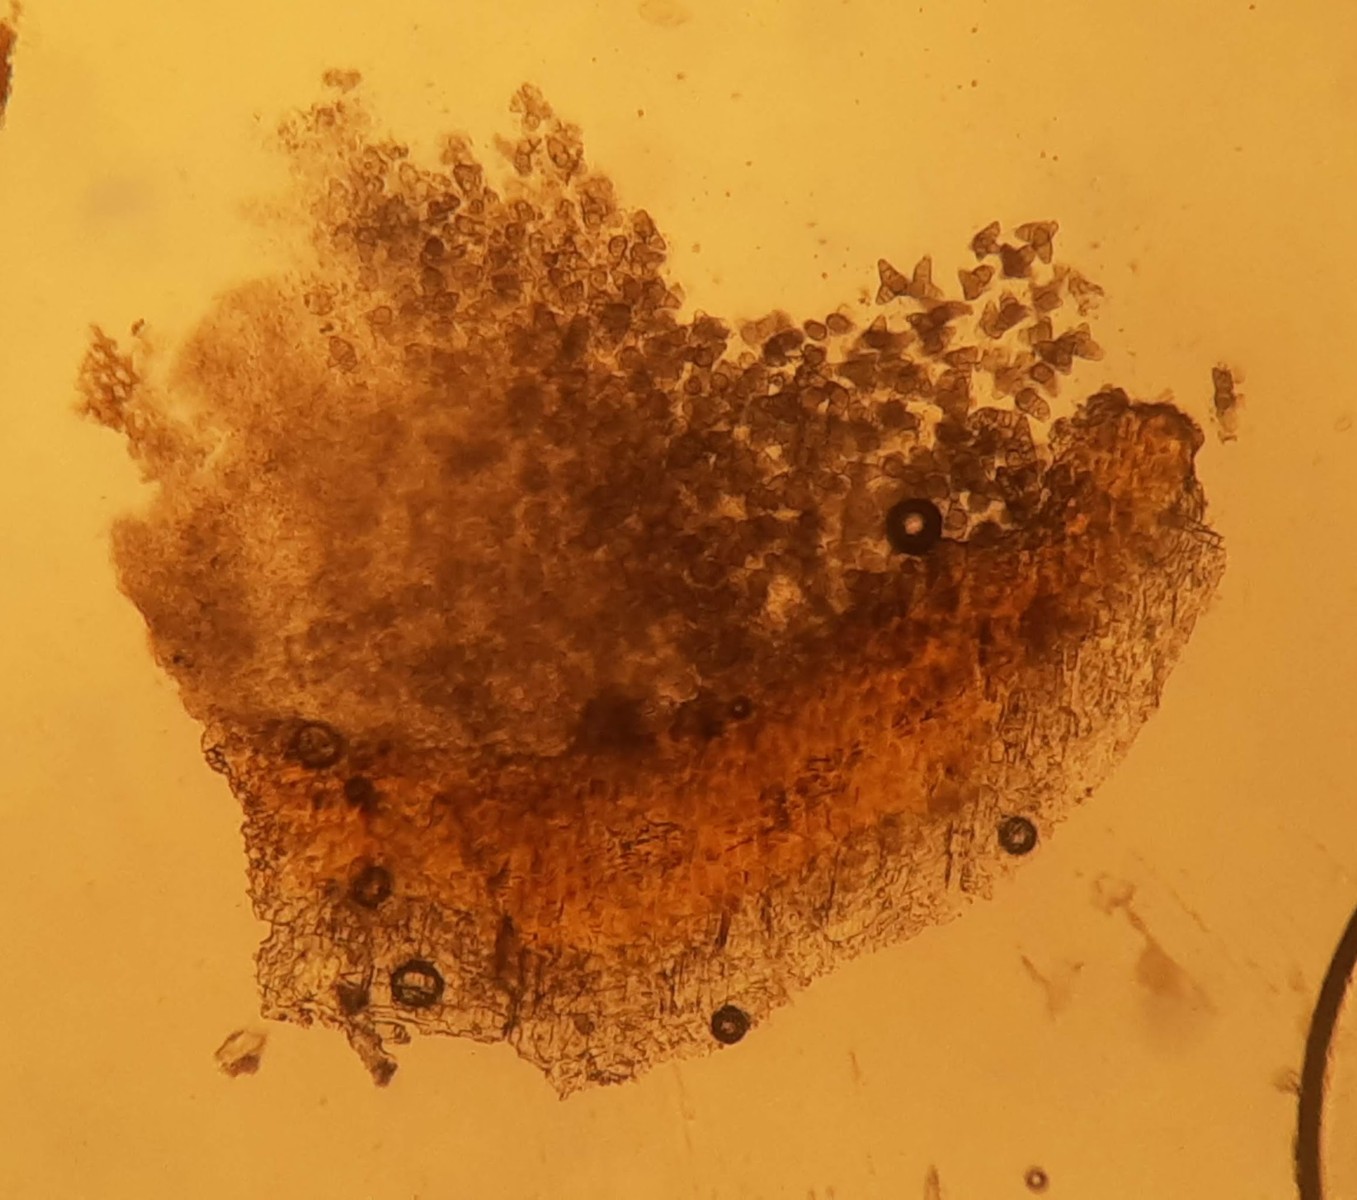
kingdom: Fungi
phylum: Ascomycota
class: Sordariomycetes
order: Diaporthales
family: Asterosporiaceae
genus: Asterosporium
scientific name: Asterosporium asterospermum
